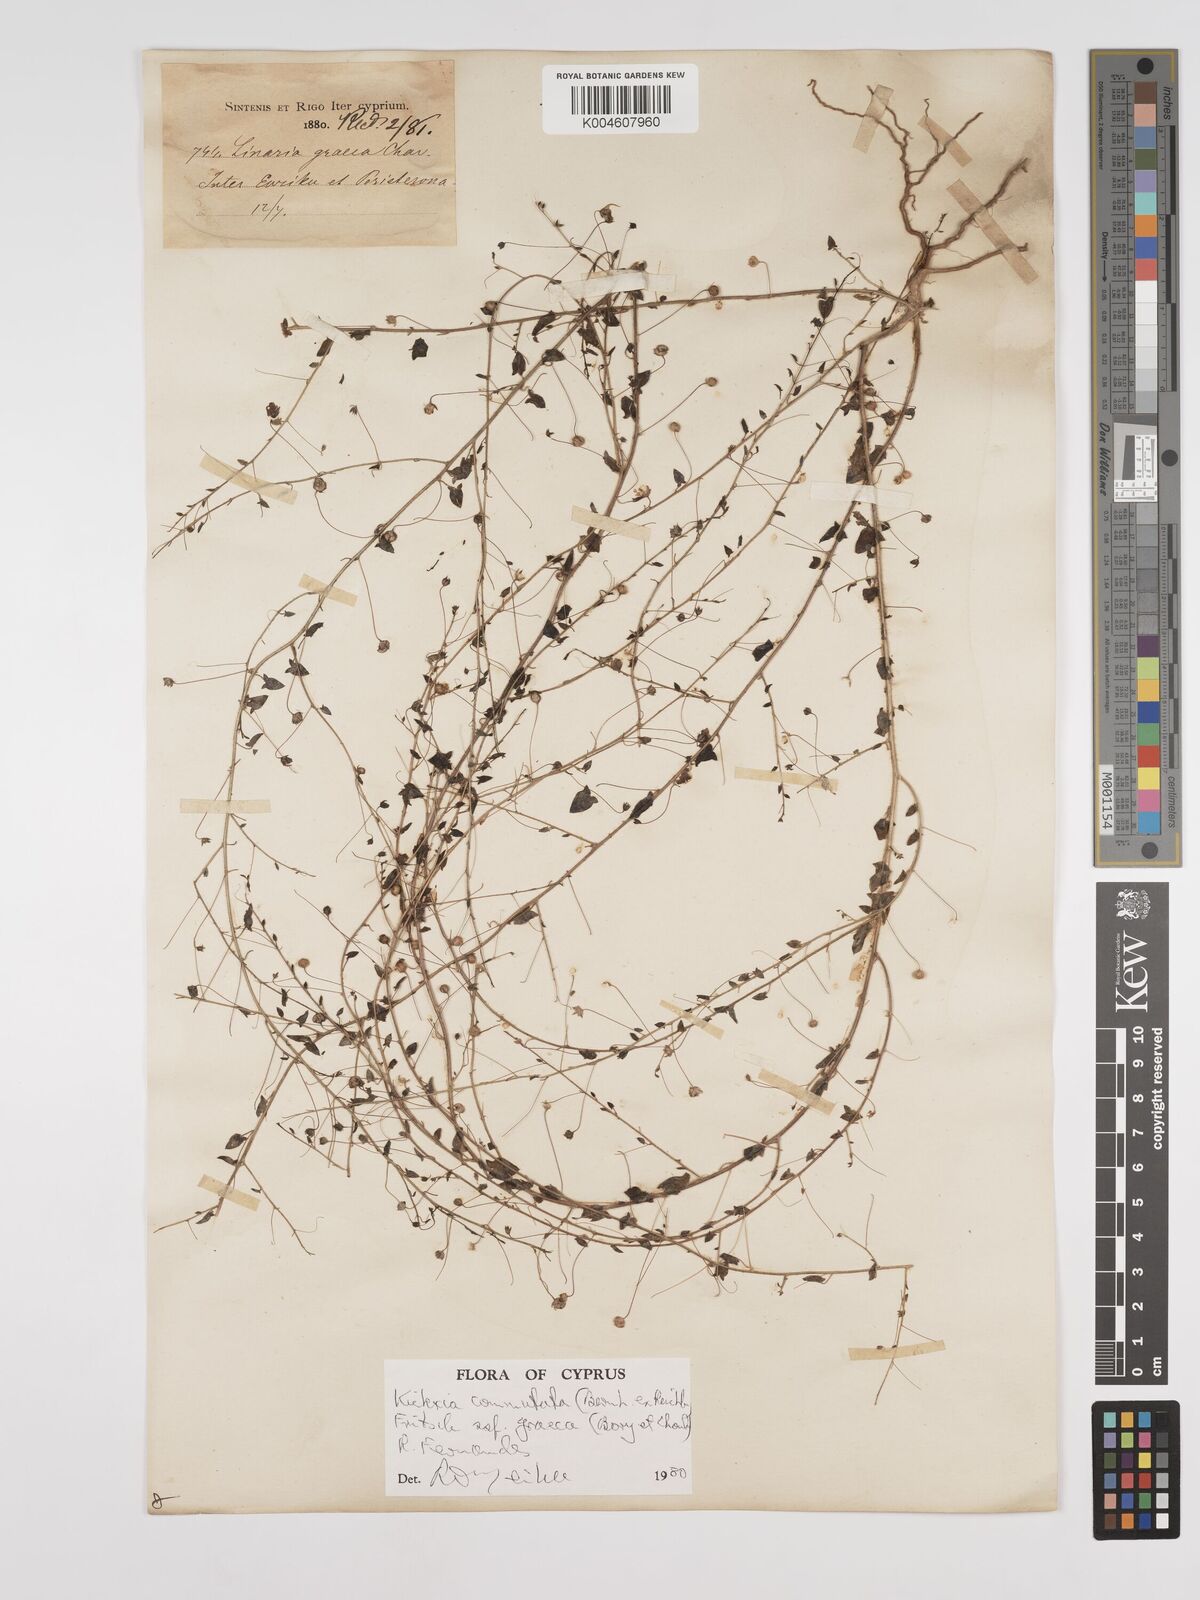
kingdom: Plantae
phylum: Tracheophyta
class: Magnoliopsida
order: Lamiales
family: Plantaginaceae
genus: Kickxia
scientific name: Kickxia commutata
